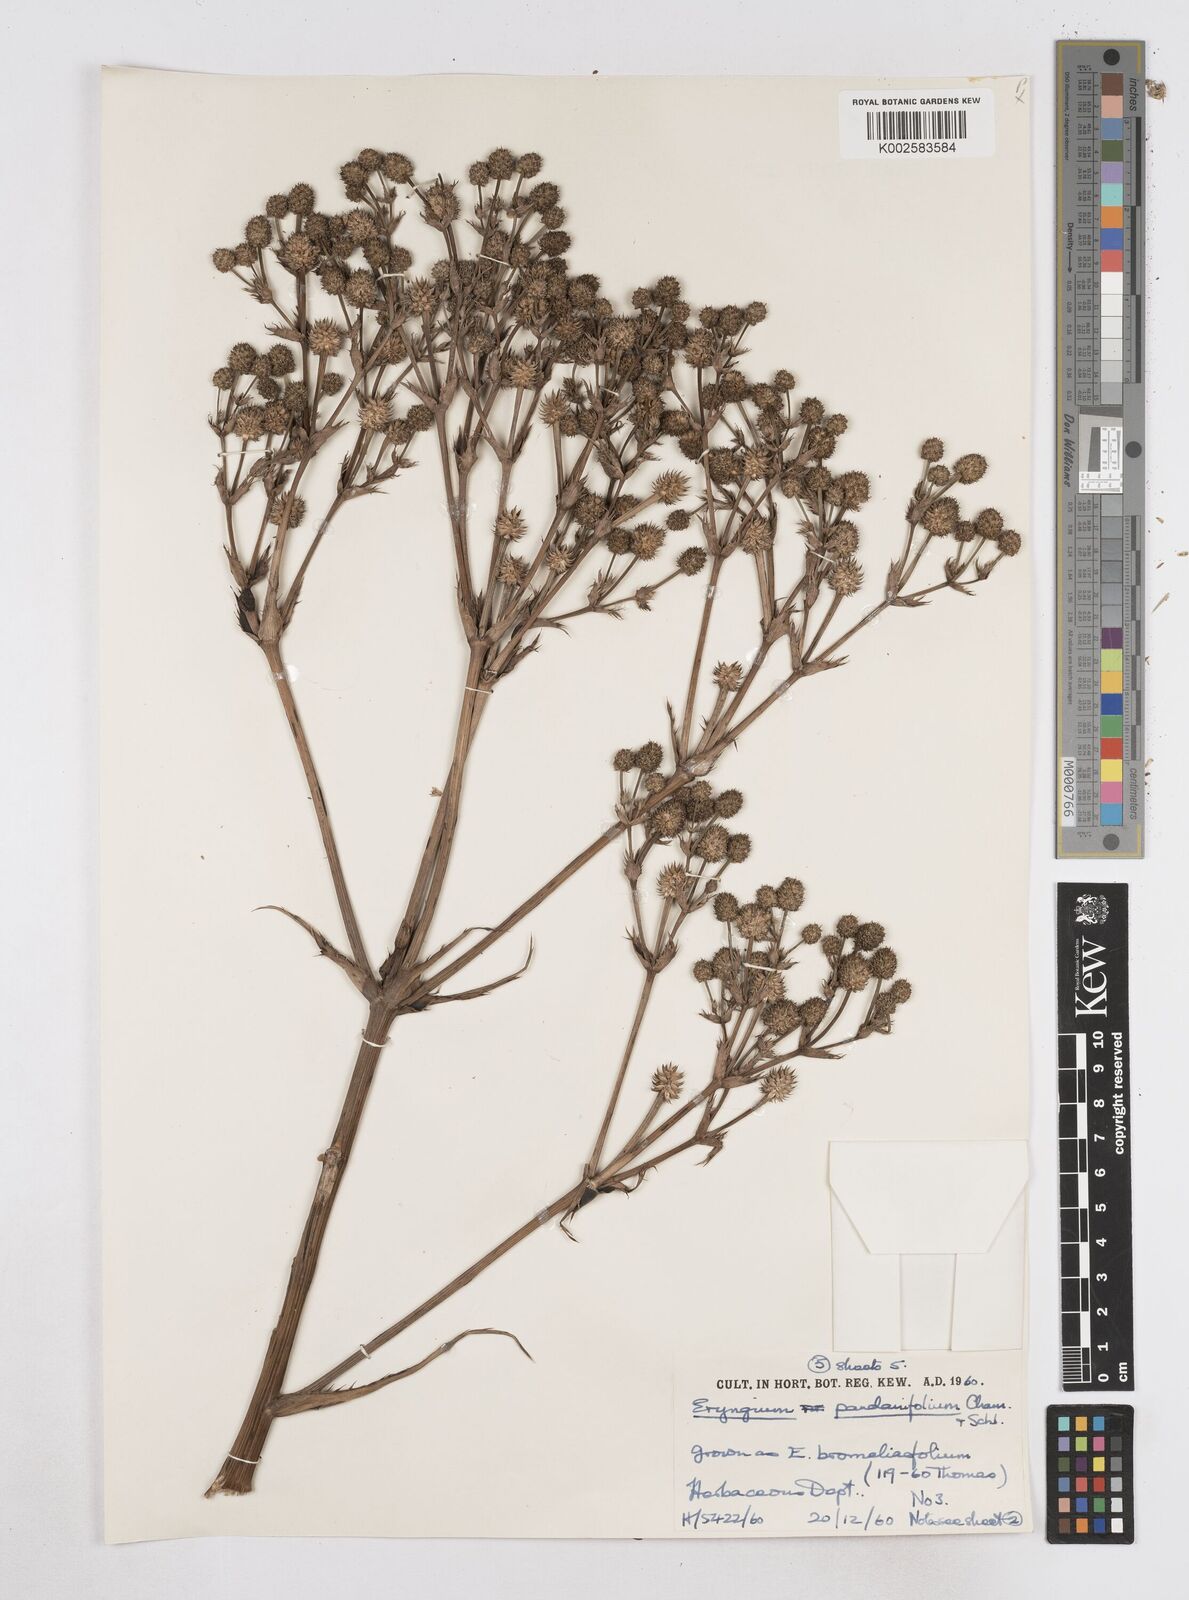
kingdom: Plantae
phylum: Tracheophyta
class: Magnoliopsida
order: Apiales
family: Apiaceae
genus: Eryngium
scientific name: Eryngium pandanifolium
